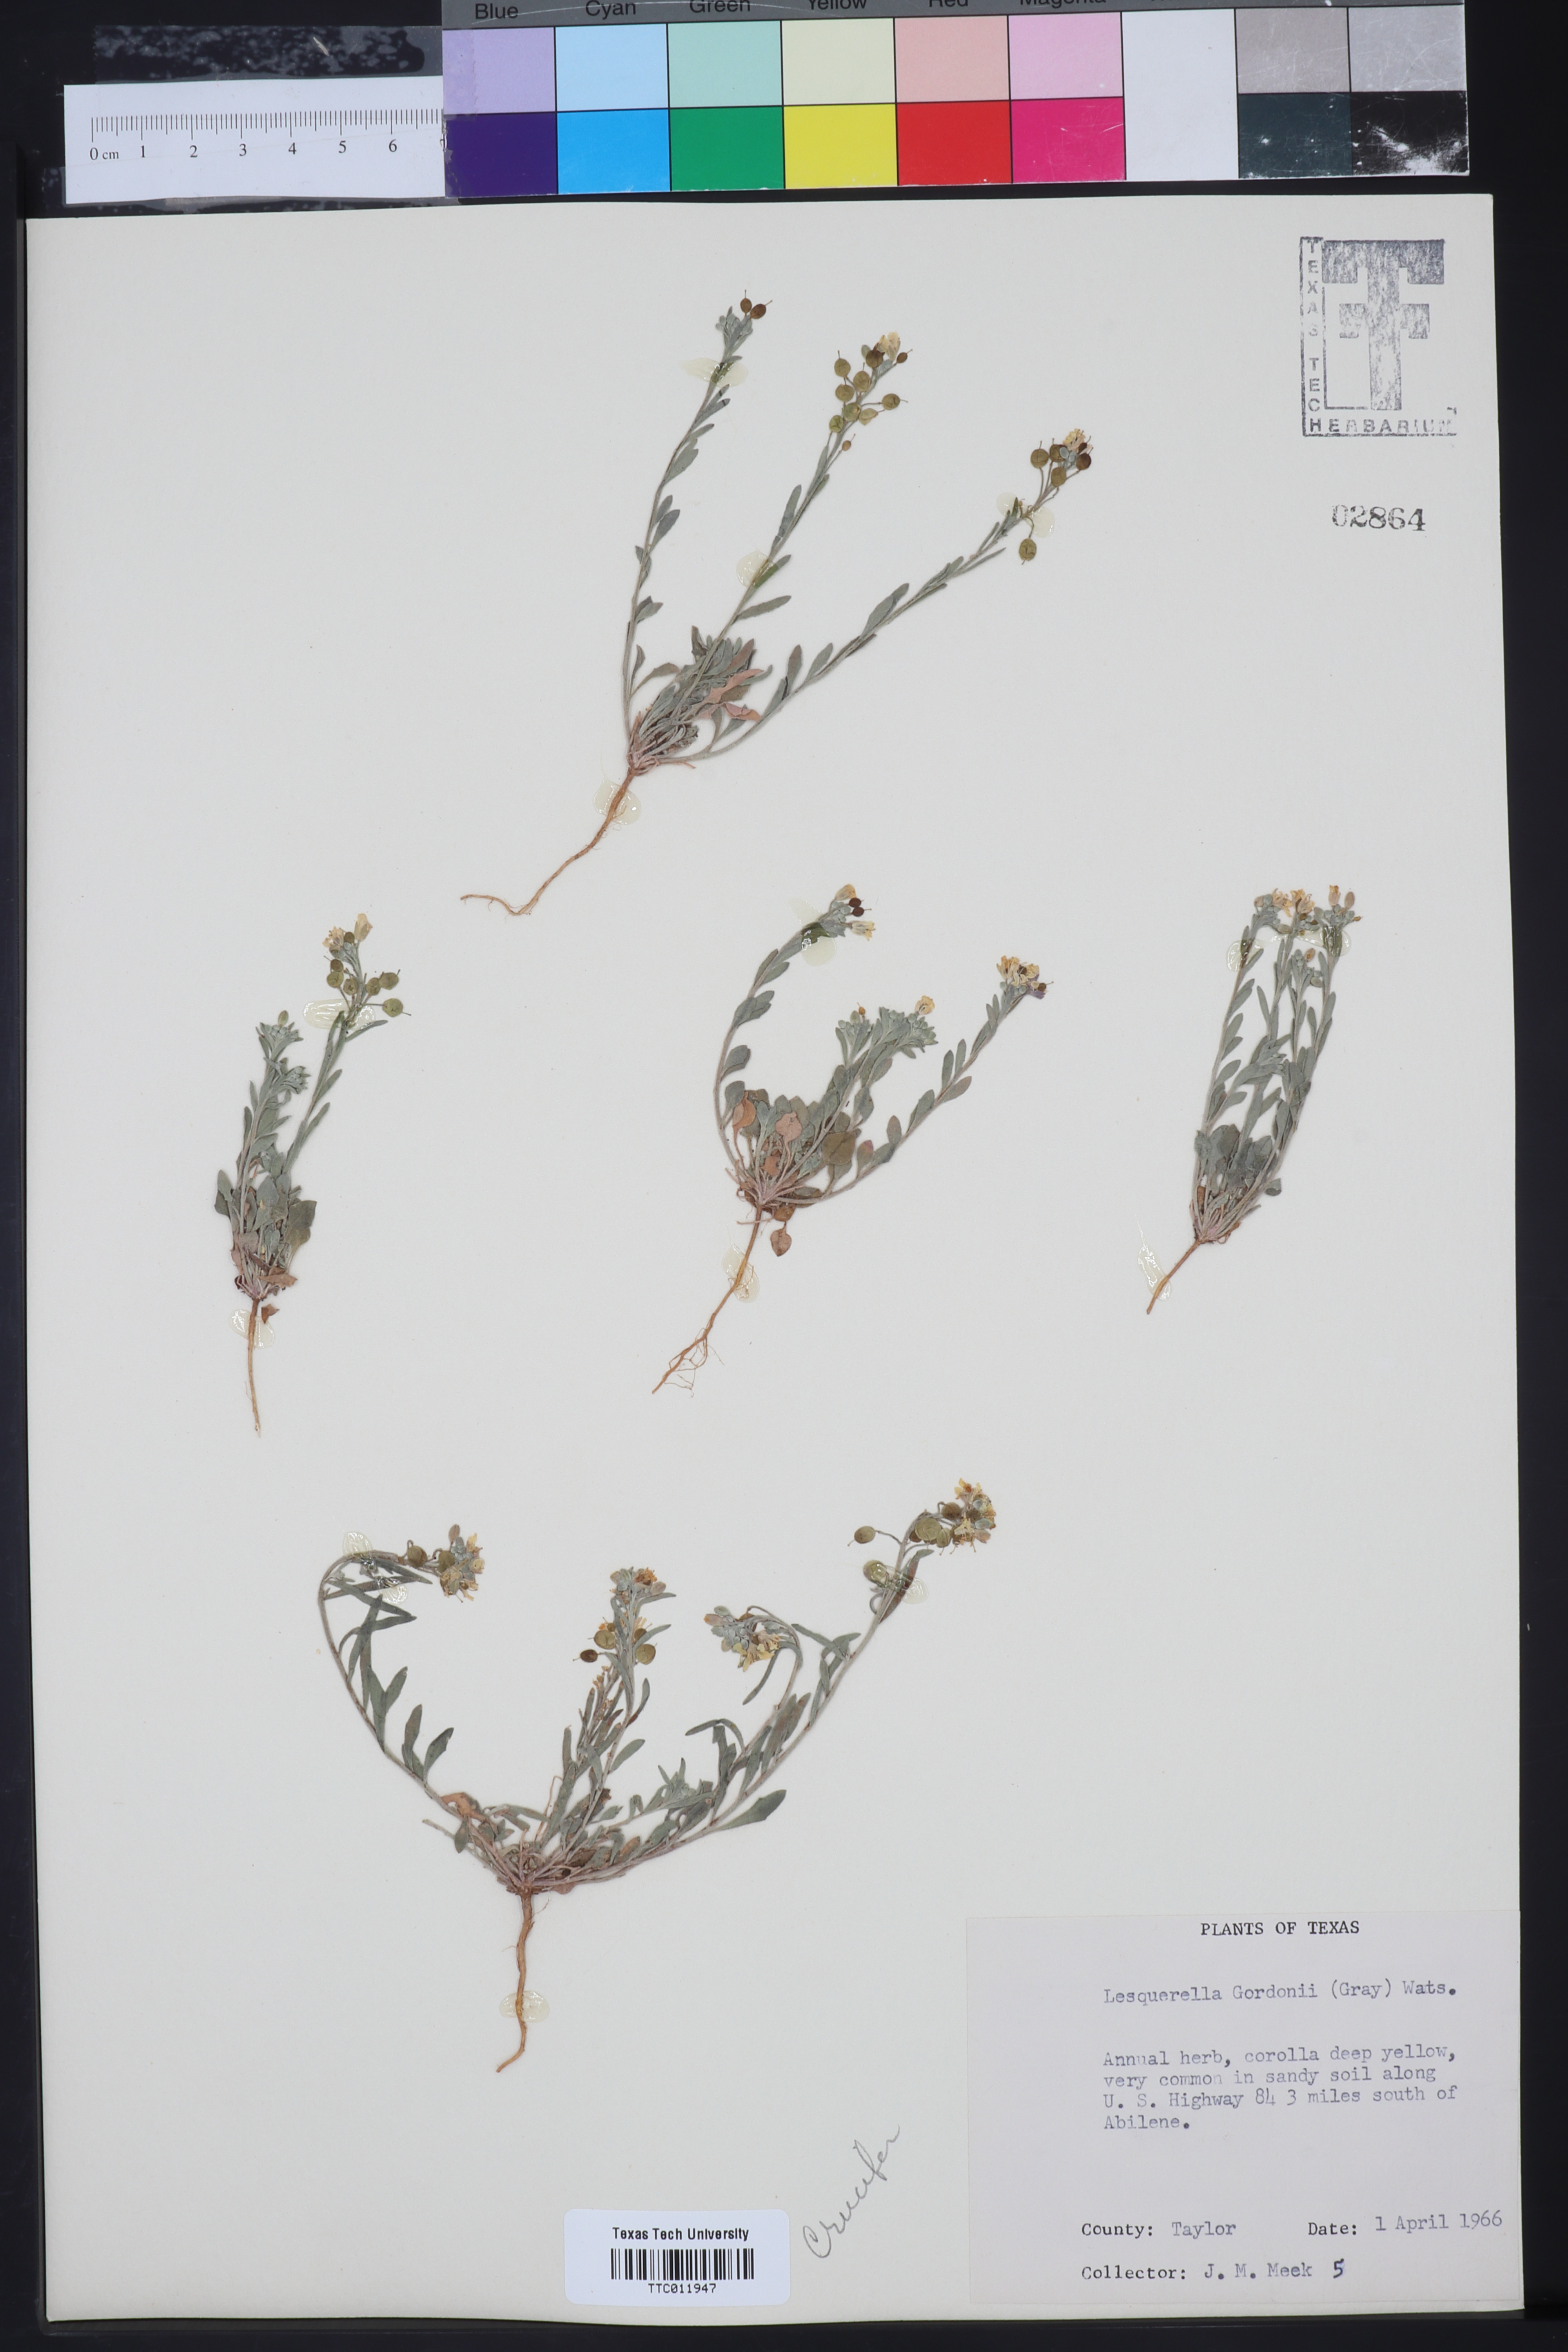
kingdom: Plantae
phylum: Tracheophyta
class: Magnoliopsida
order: Brassicales
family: Brassicaceae
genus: Physaria
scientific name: Physaria gordonii
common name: Gordon's bladderpod
